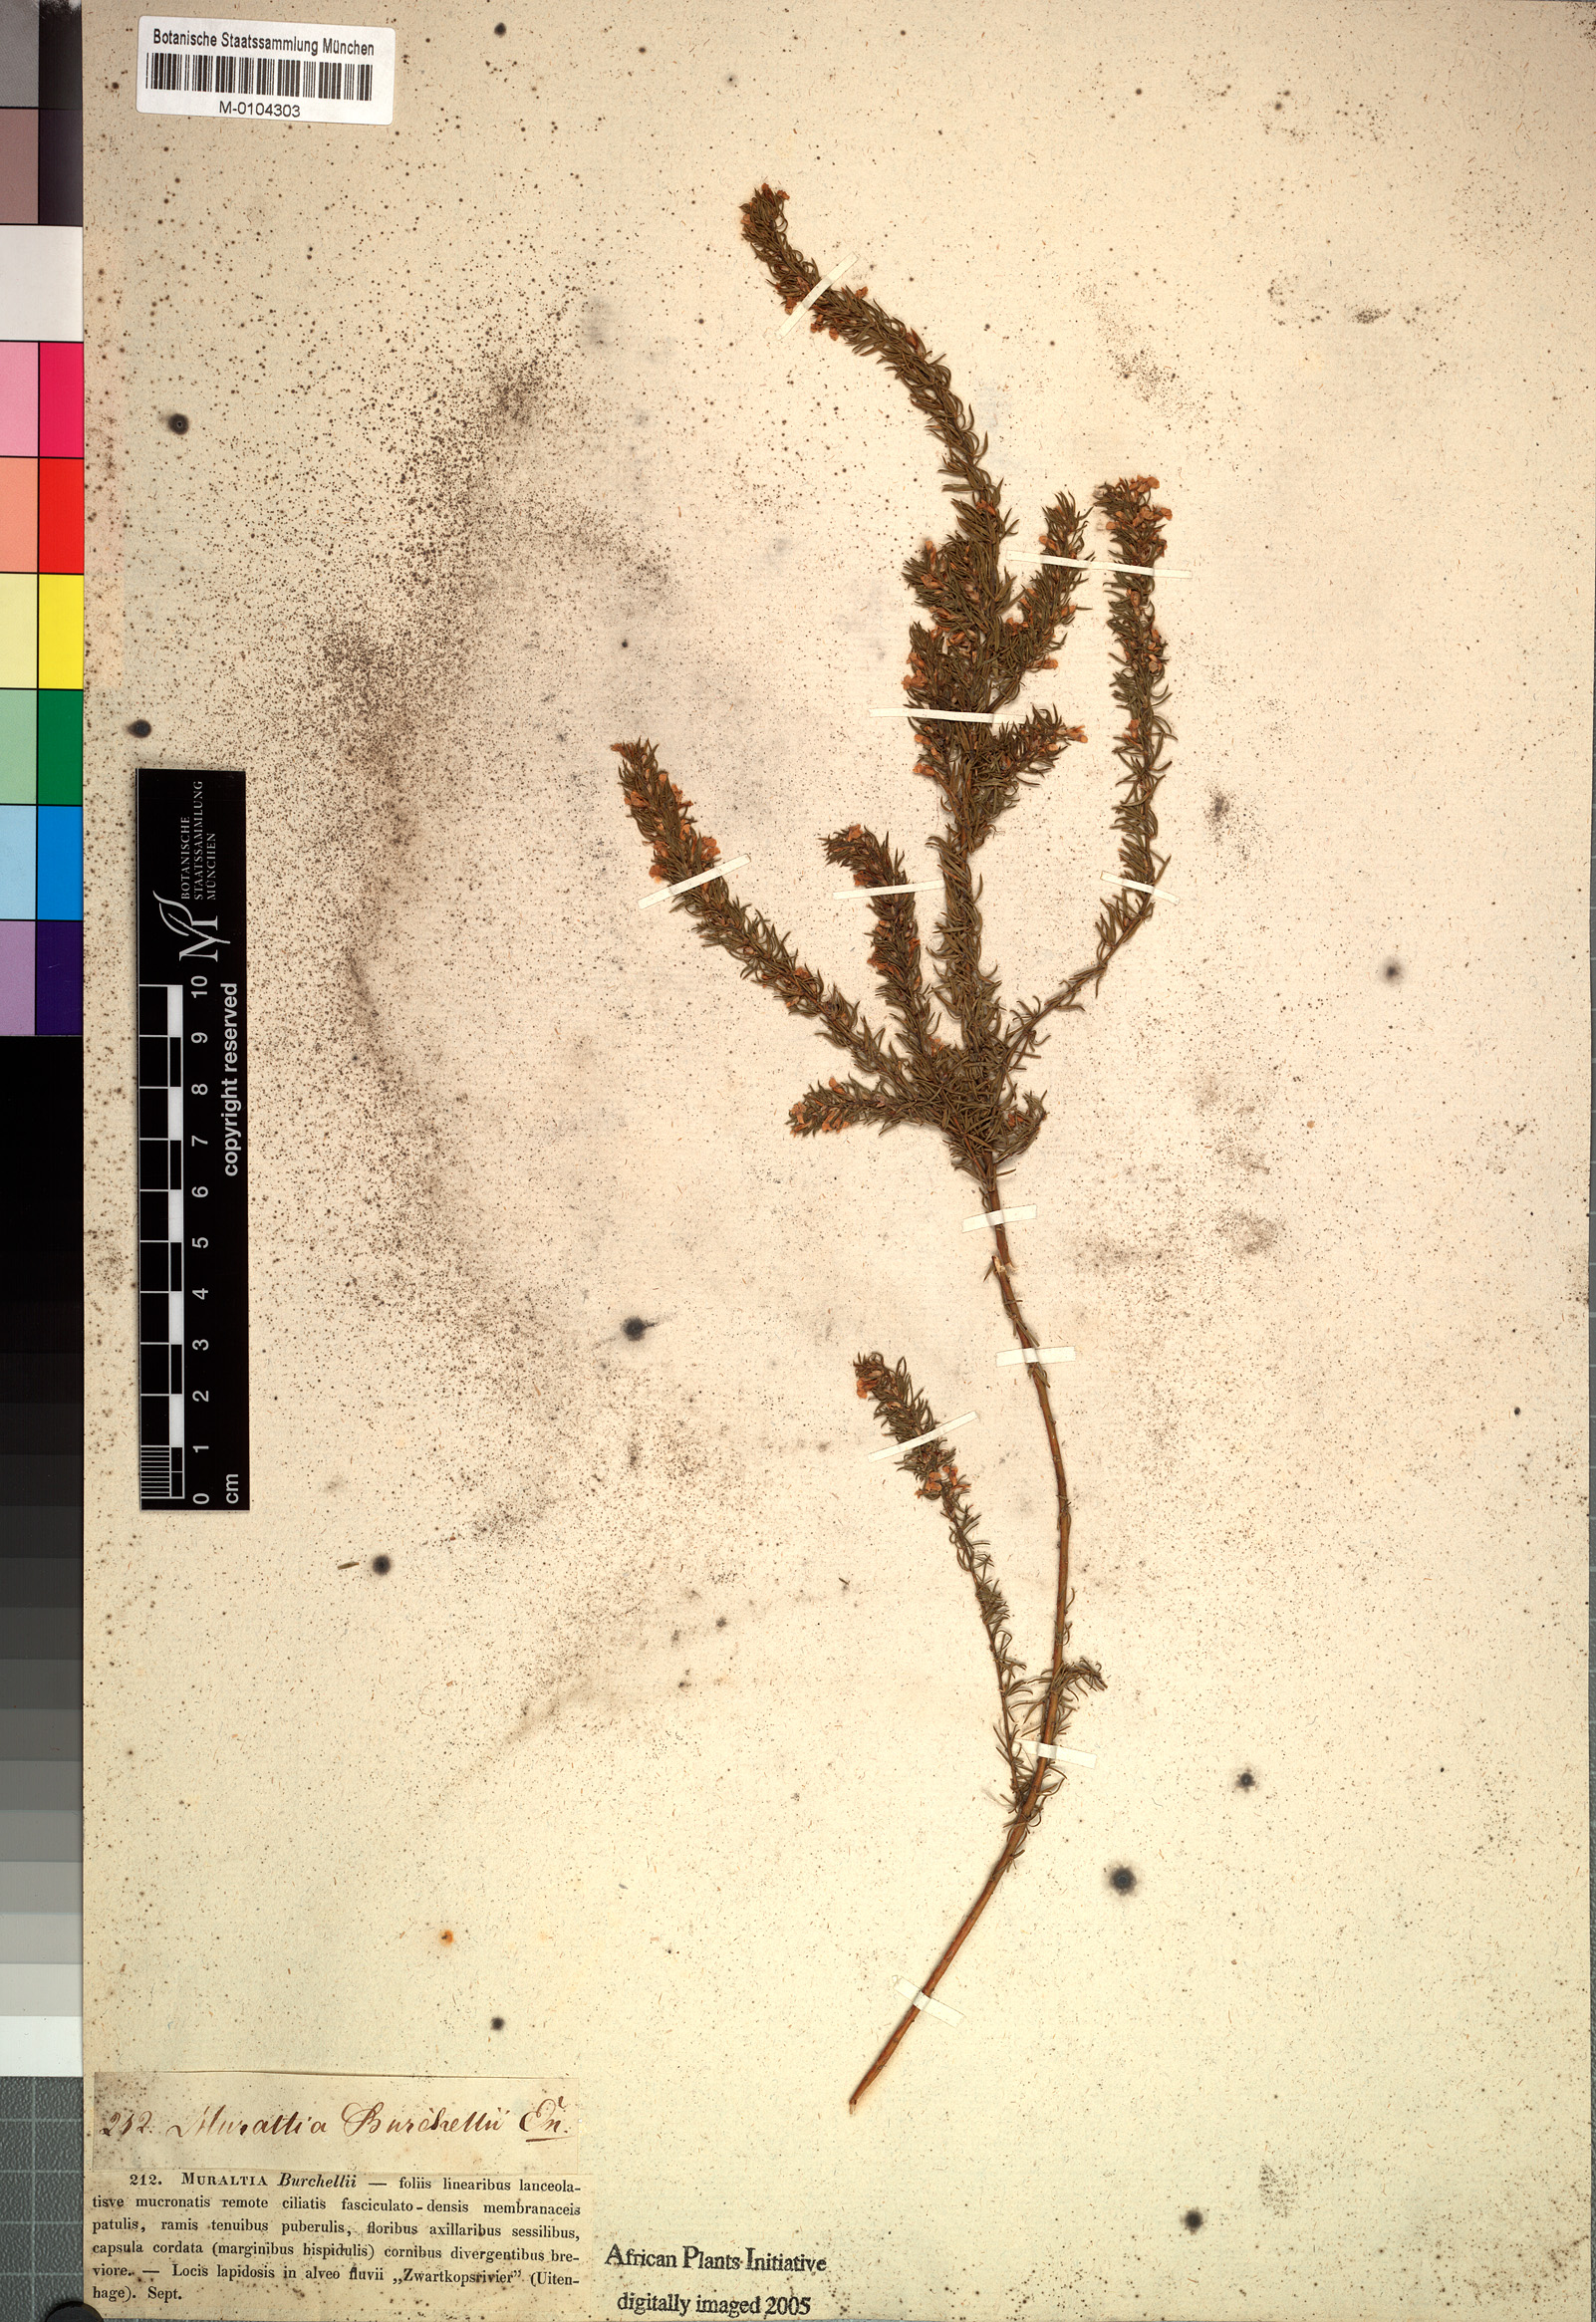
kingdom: Plantae
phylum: Tracheophyta
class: Magnoliopsida
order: Fabales
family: Polygalaceae
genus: Muraltia
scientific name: Muraltia alopecuroides
